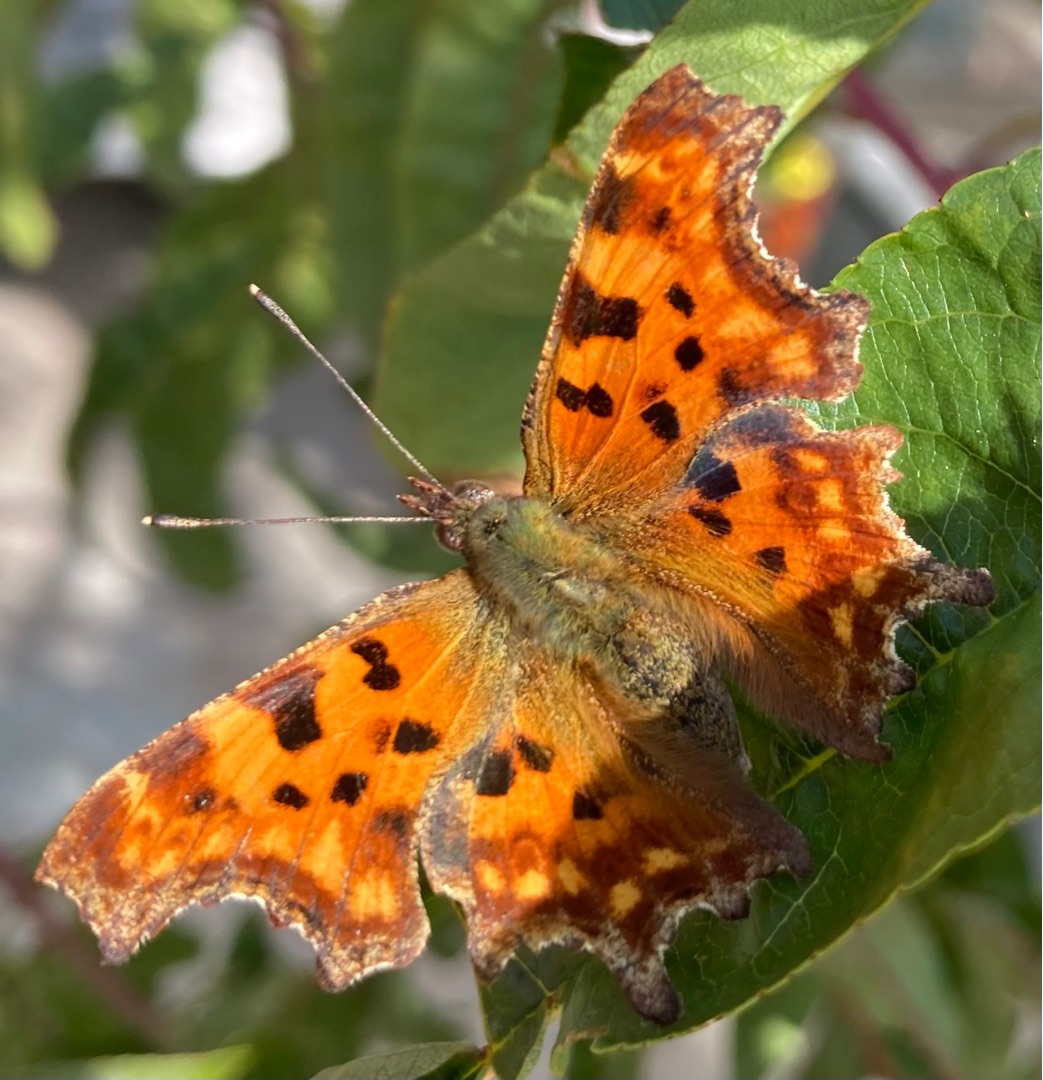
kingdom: Animalia
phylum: Arthropoda
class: Insecta
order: Lepidoptera
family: Nymphalidae
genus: Polygonia
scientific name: Polygonia c-album
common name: Det hvide C
